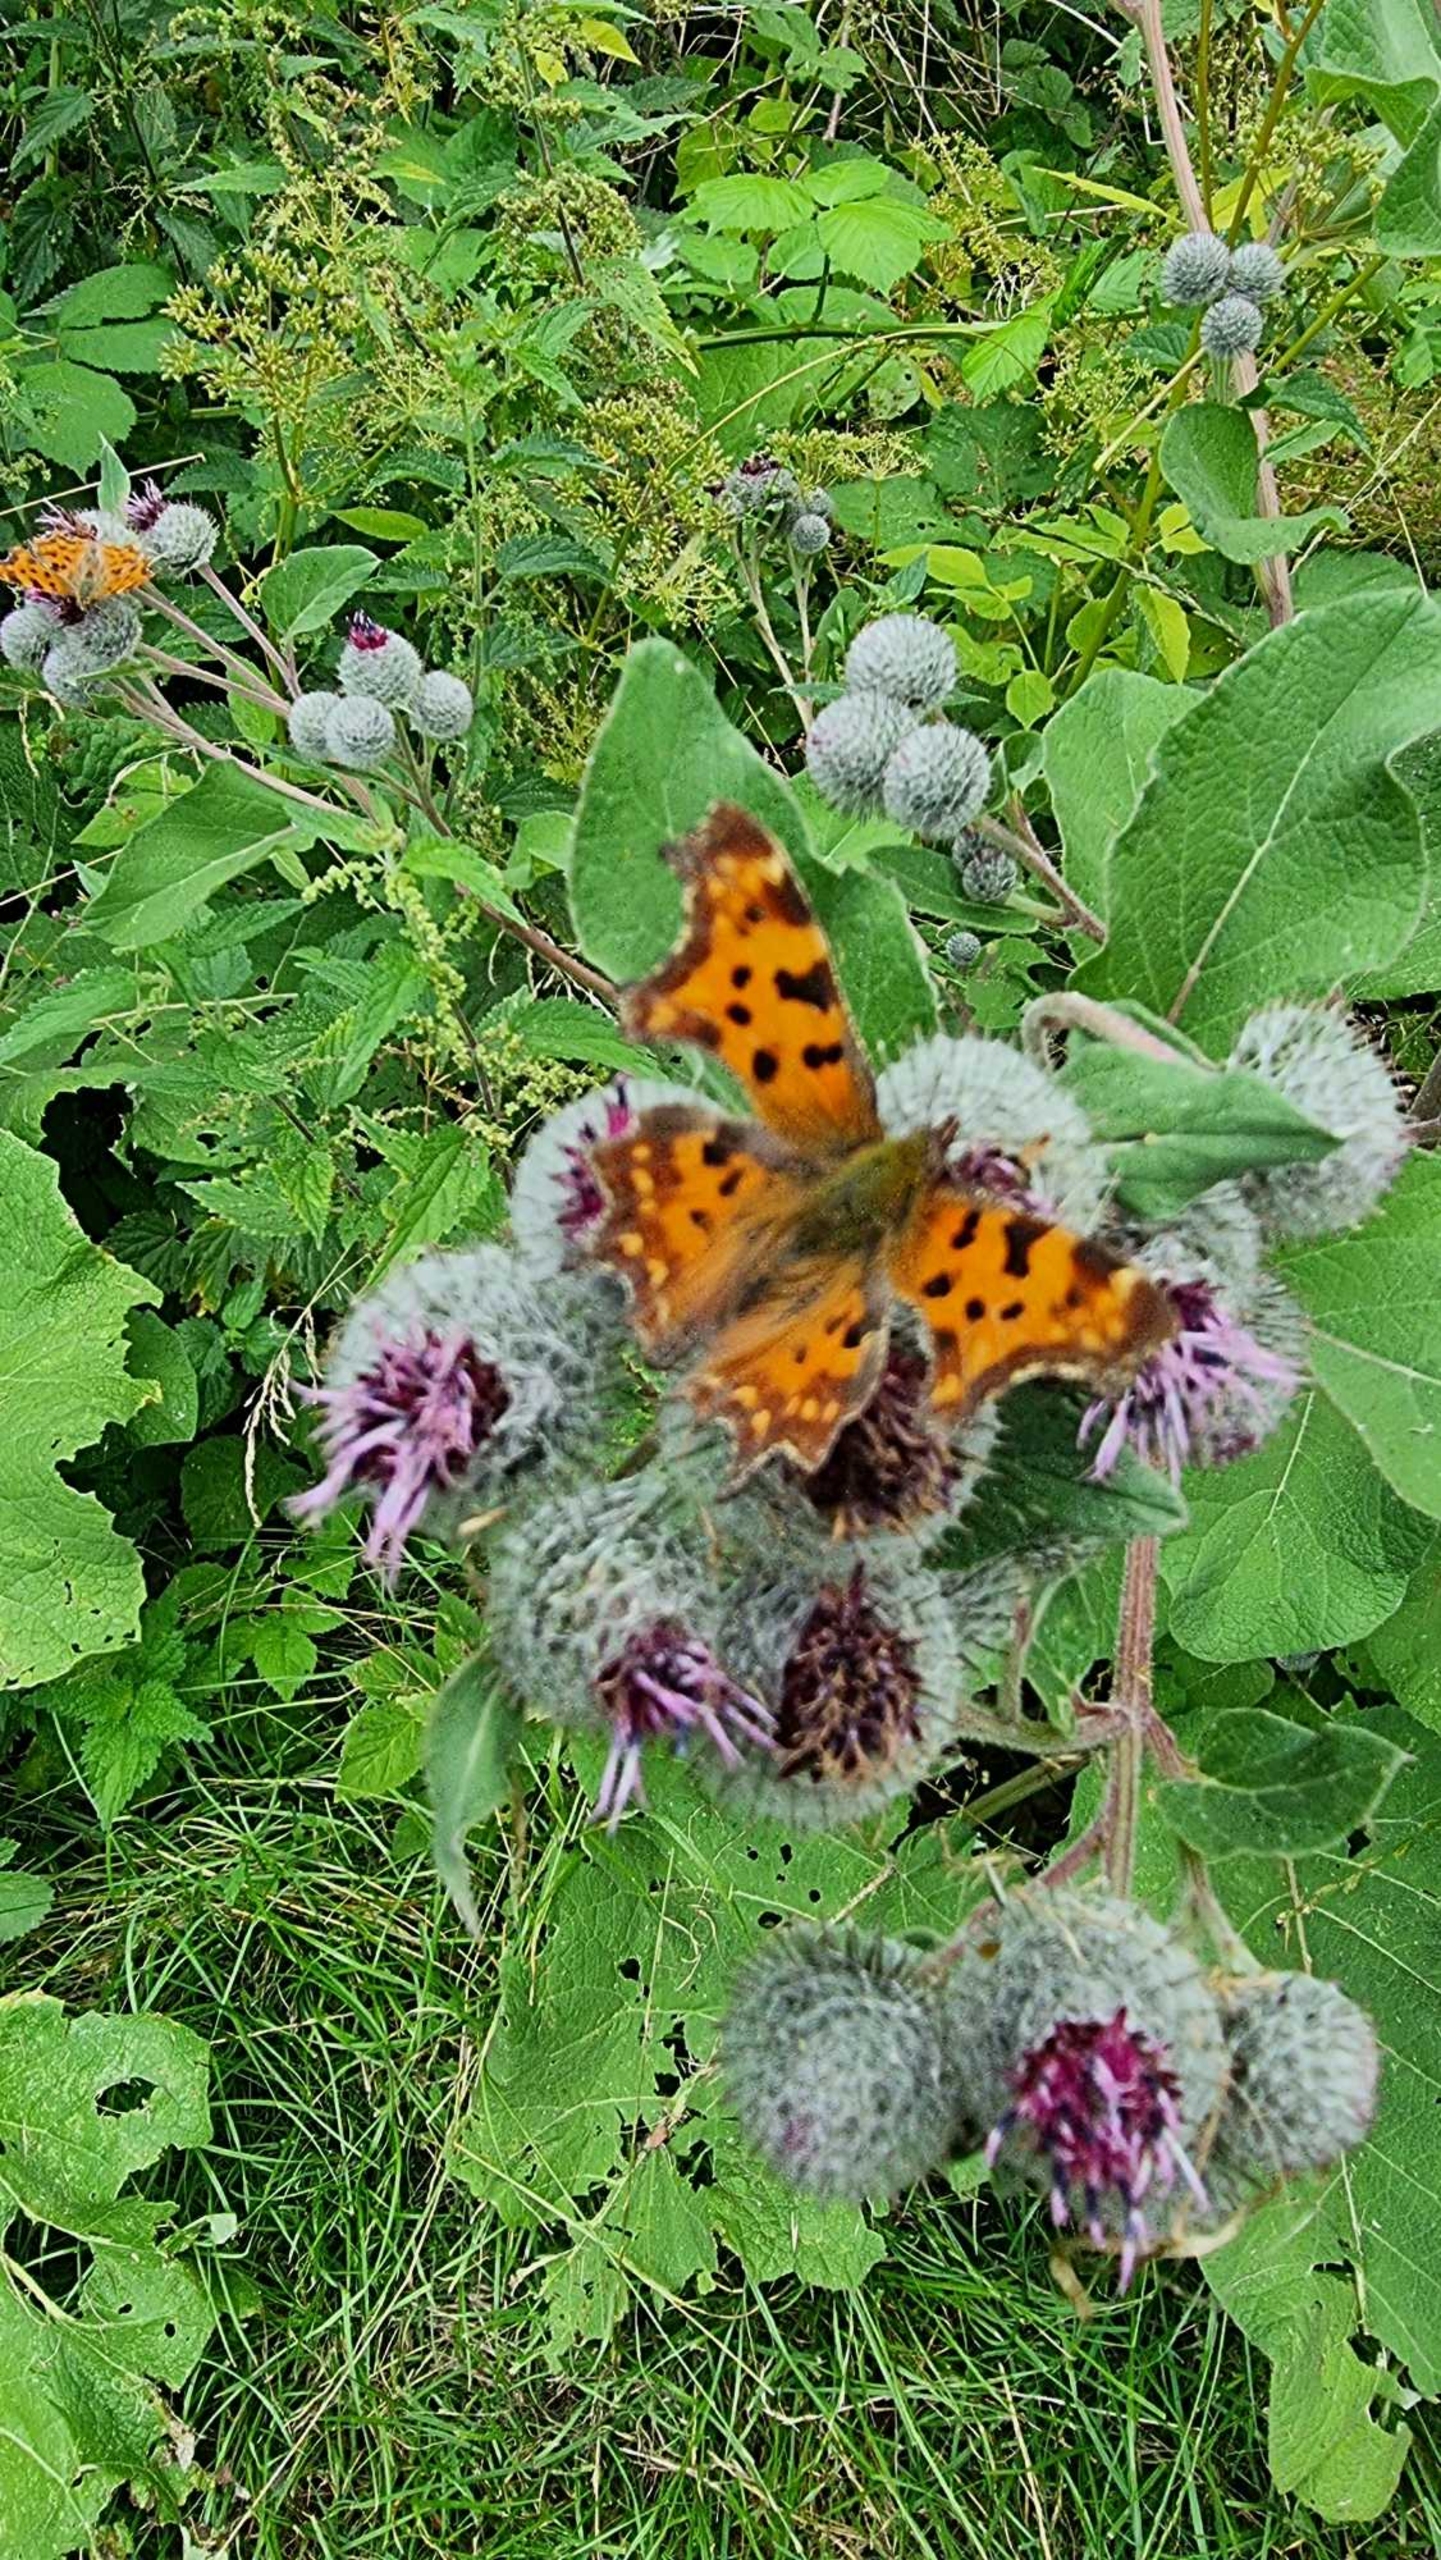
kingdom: Animalia
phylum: Arthropoda
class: Insecta
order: Lepidoptera
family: Nymphalidae
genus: Polygonia
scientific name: Polygonia c-album
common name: Det hvide C
